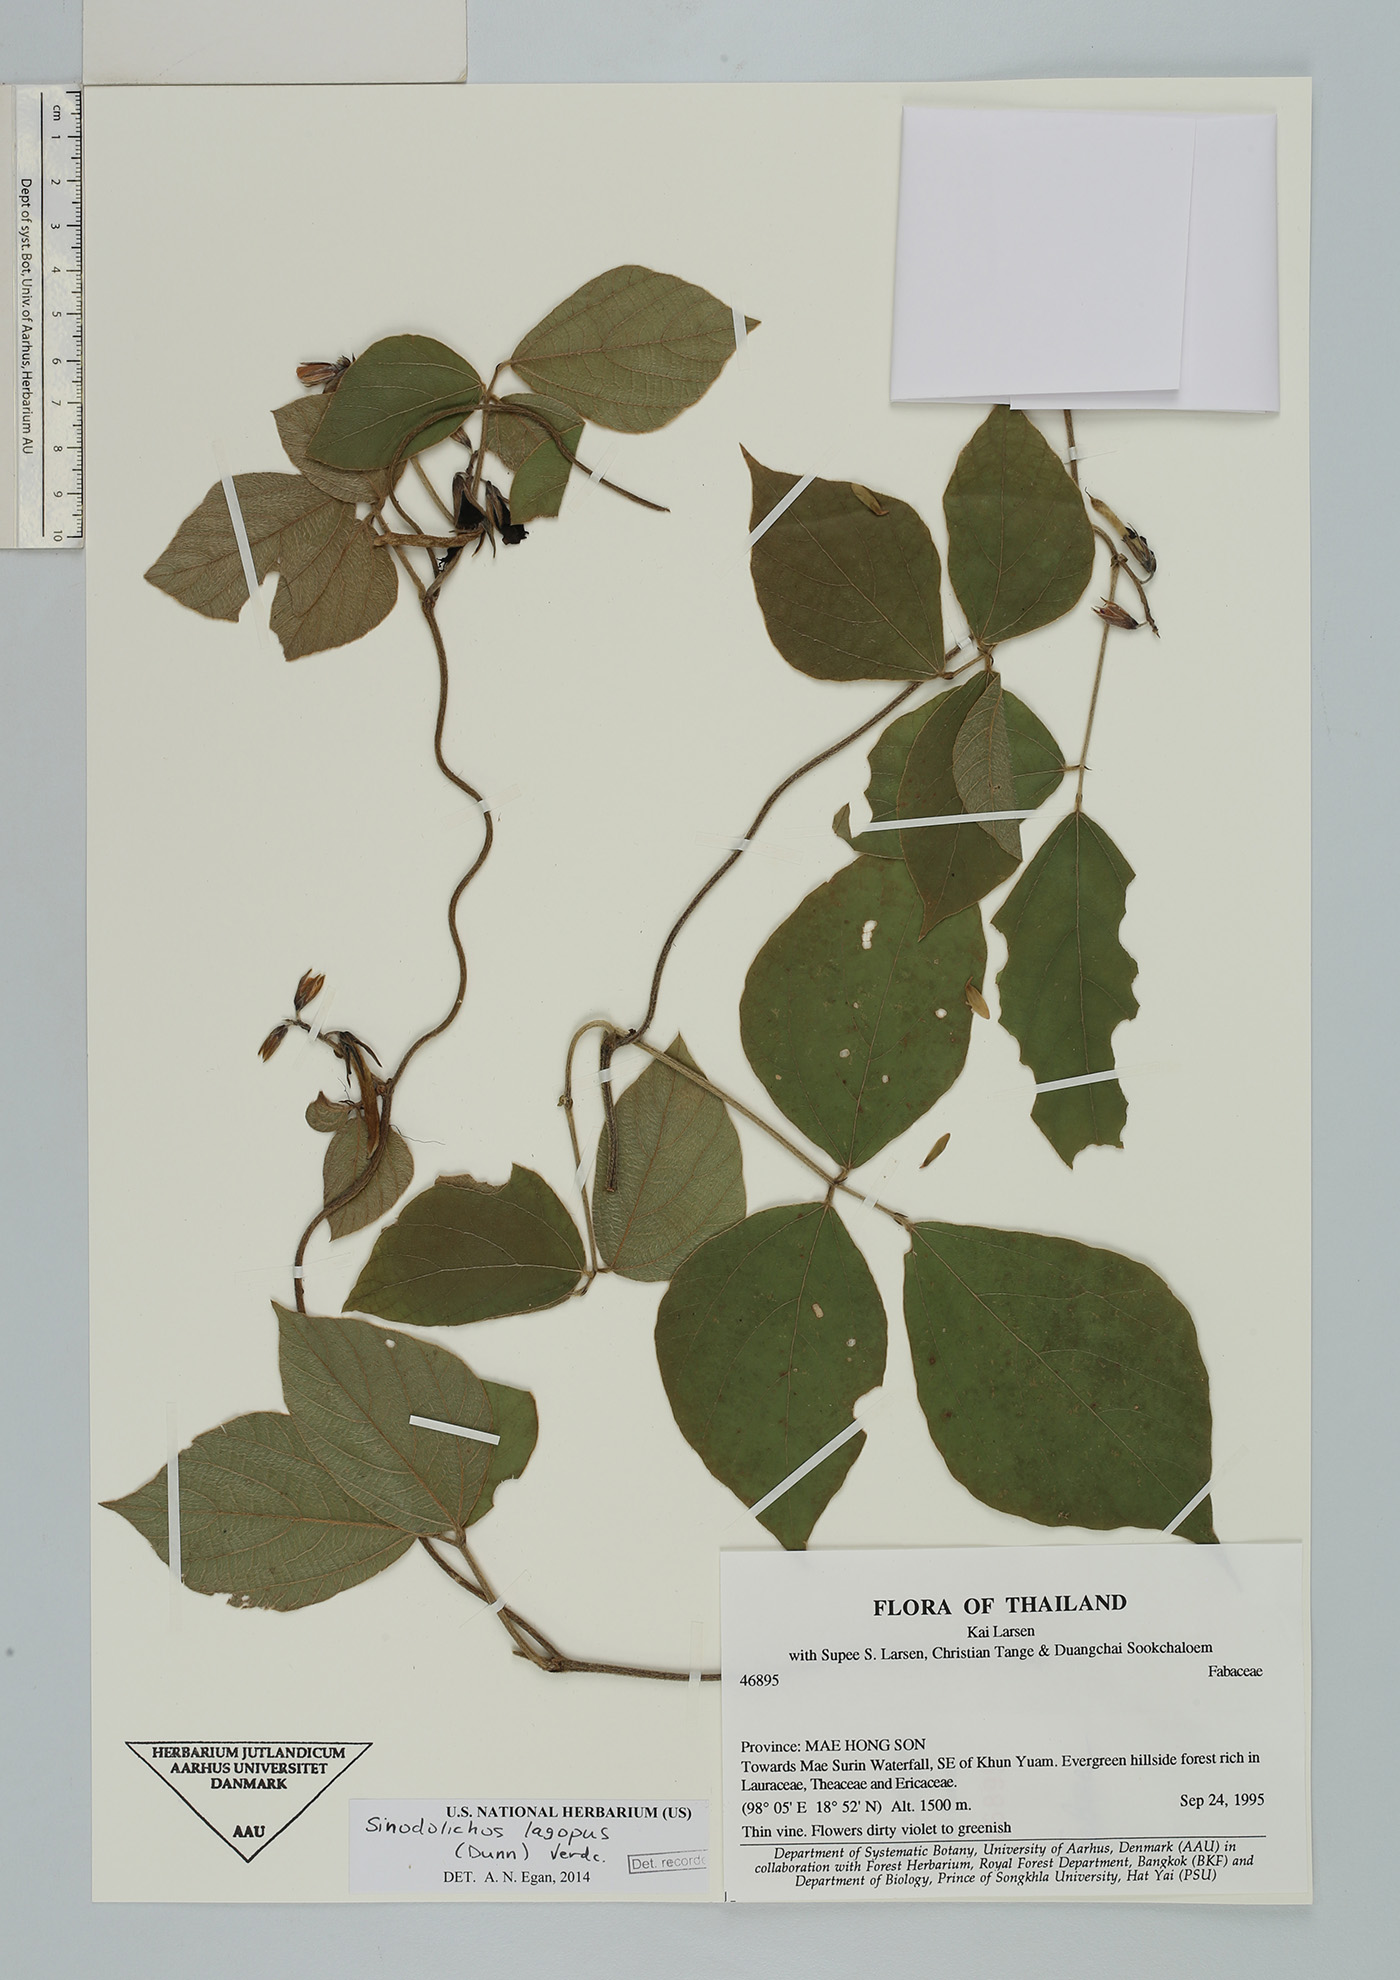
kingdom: Plantae
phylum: Tracheophyta
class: Magnoliopsida
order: Fabales
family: Fabaceae
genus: Sinodolichos
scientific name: Sinodolichos lagopus
